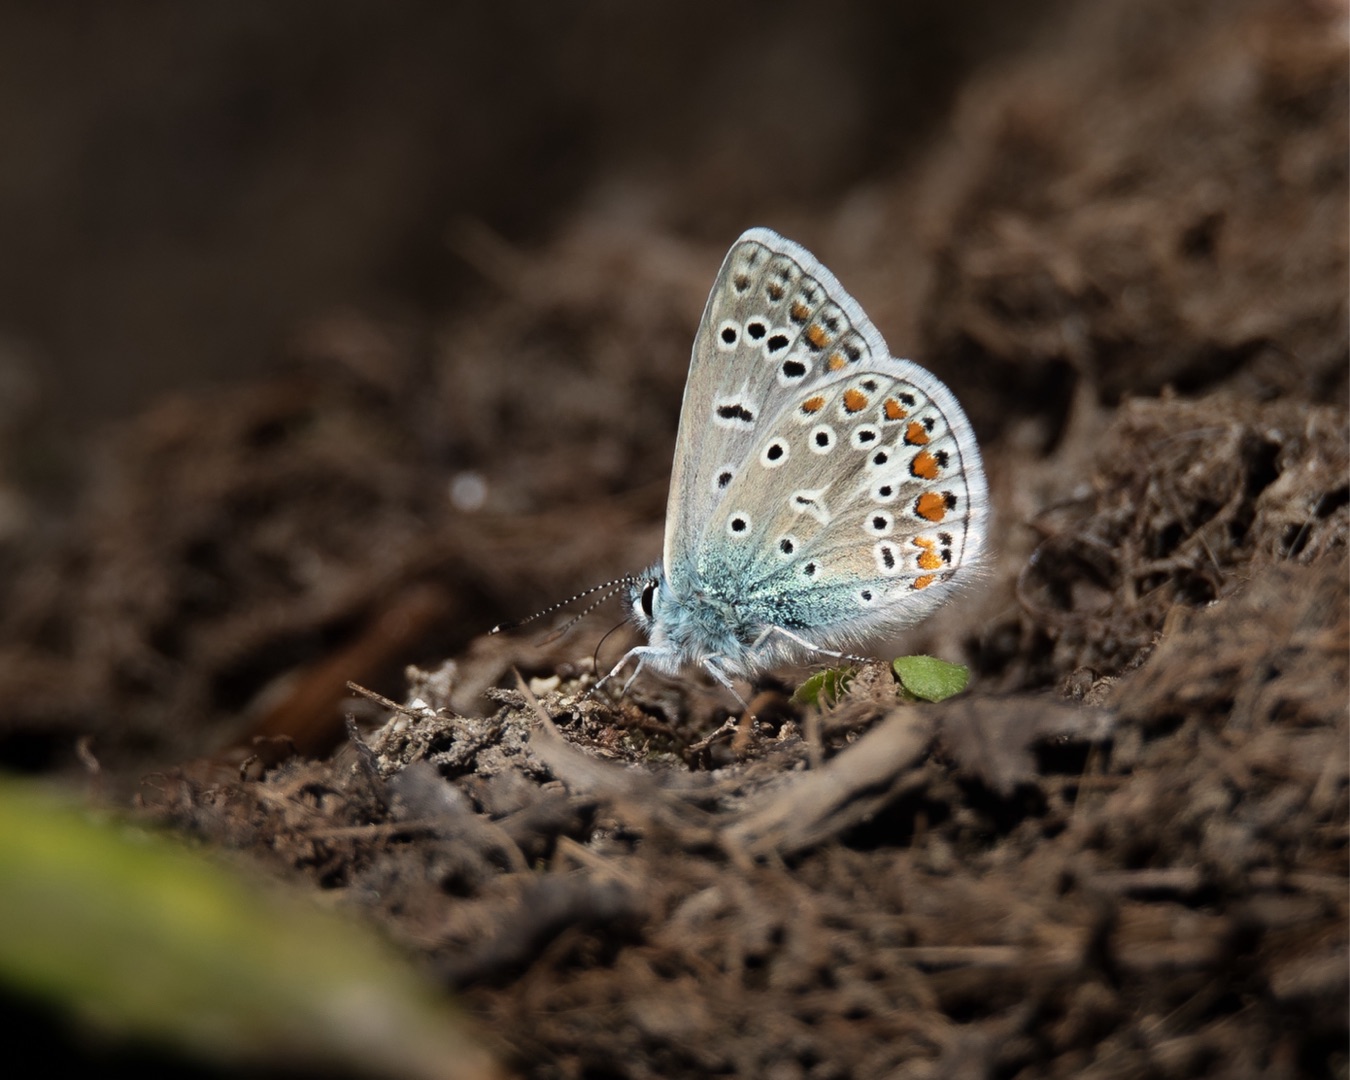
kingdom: Animalia
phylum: Arthropoda
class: Insecta
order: Lepidoptera
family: Lycaenidae
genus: Polyommatus
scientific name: Polyommatus icarus
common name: Almindelig blåfugl
